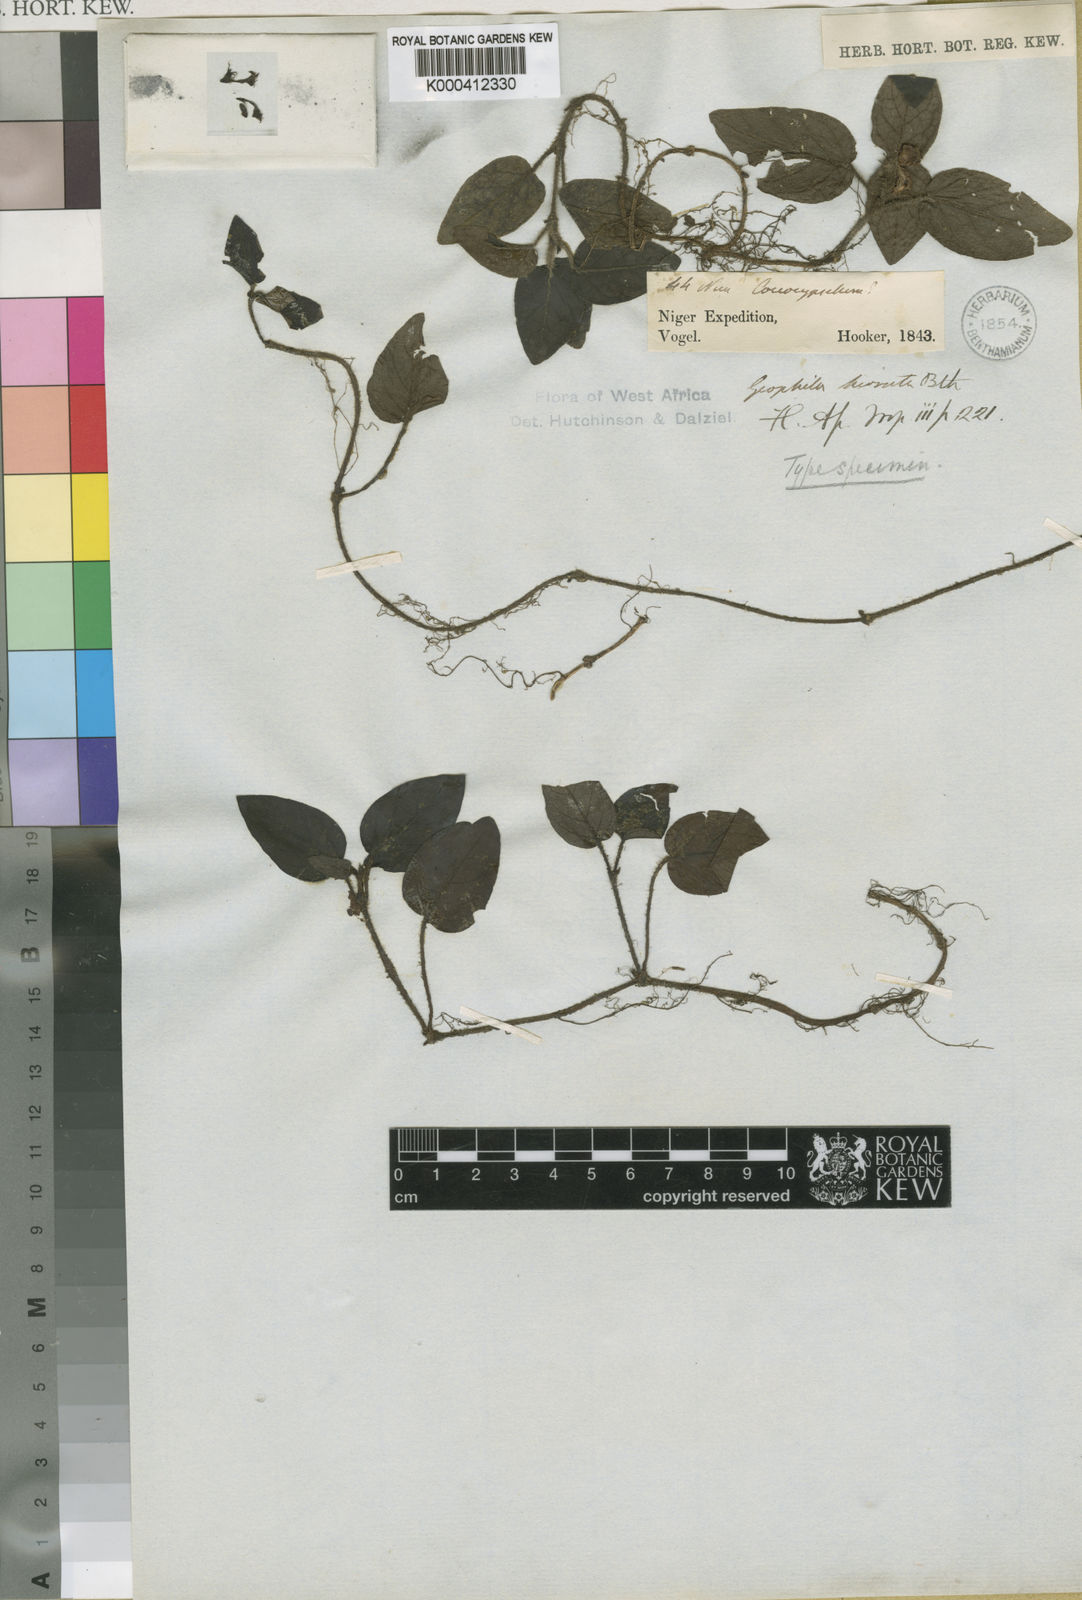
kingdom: Plantae
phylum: Tracheophyta
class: Magnoliopsida
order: Gentianales
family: Rubiaceae
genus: Hymenocoleus
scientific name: Hymenocoleus hirsutus
